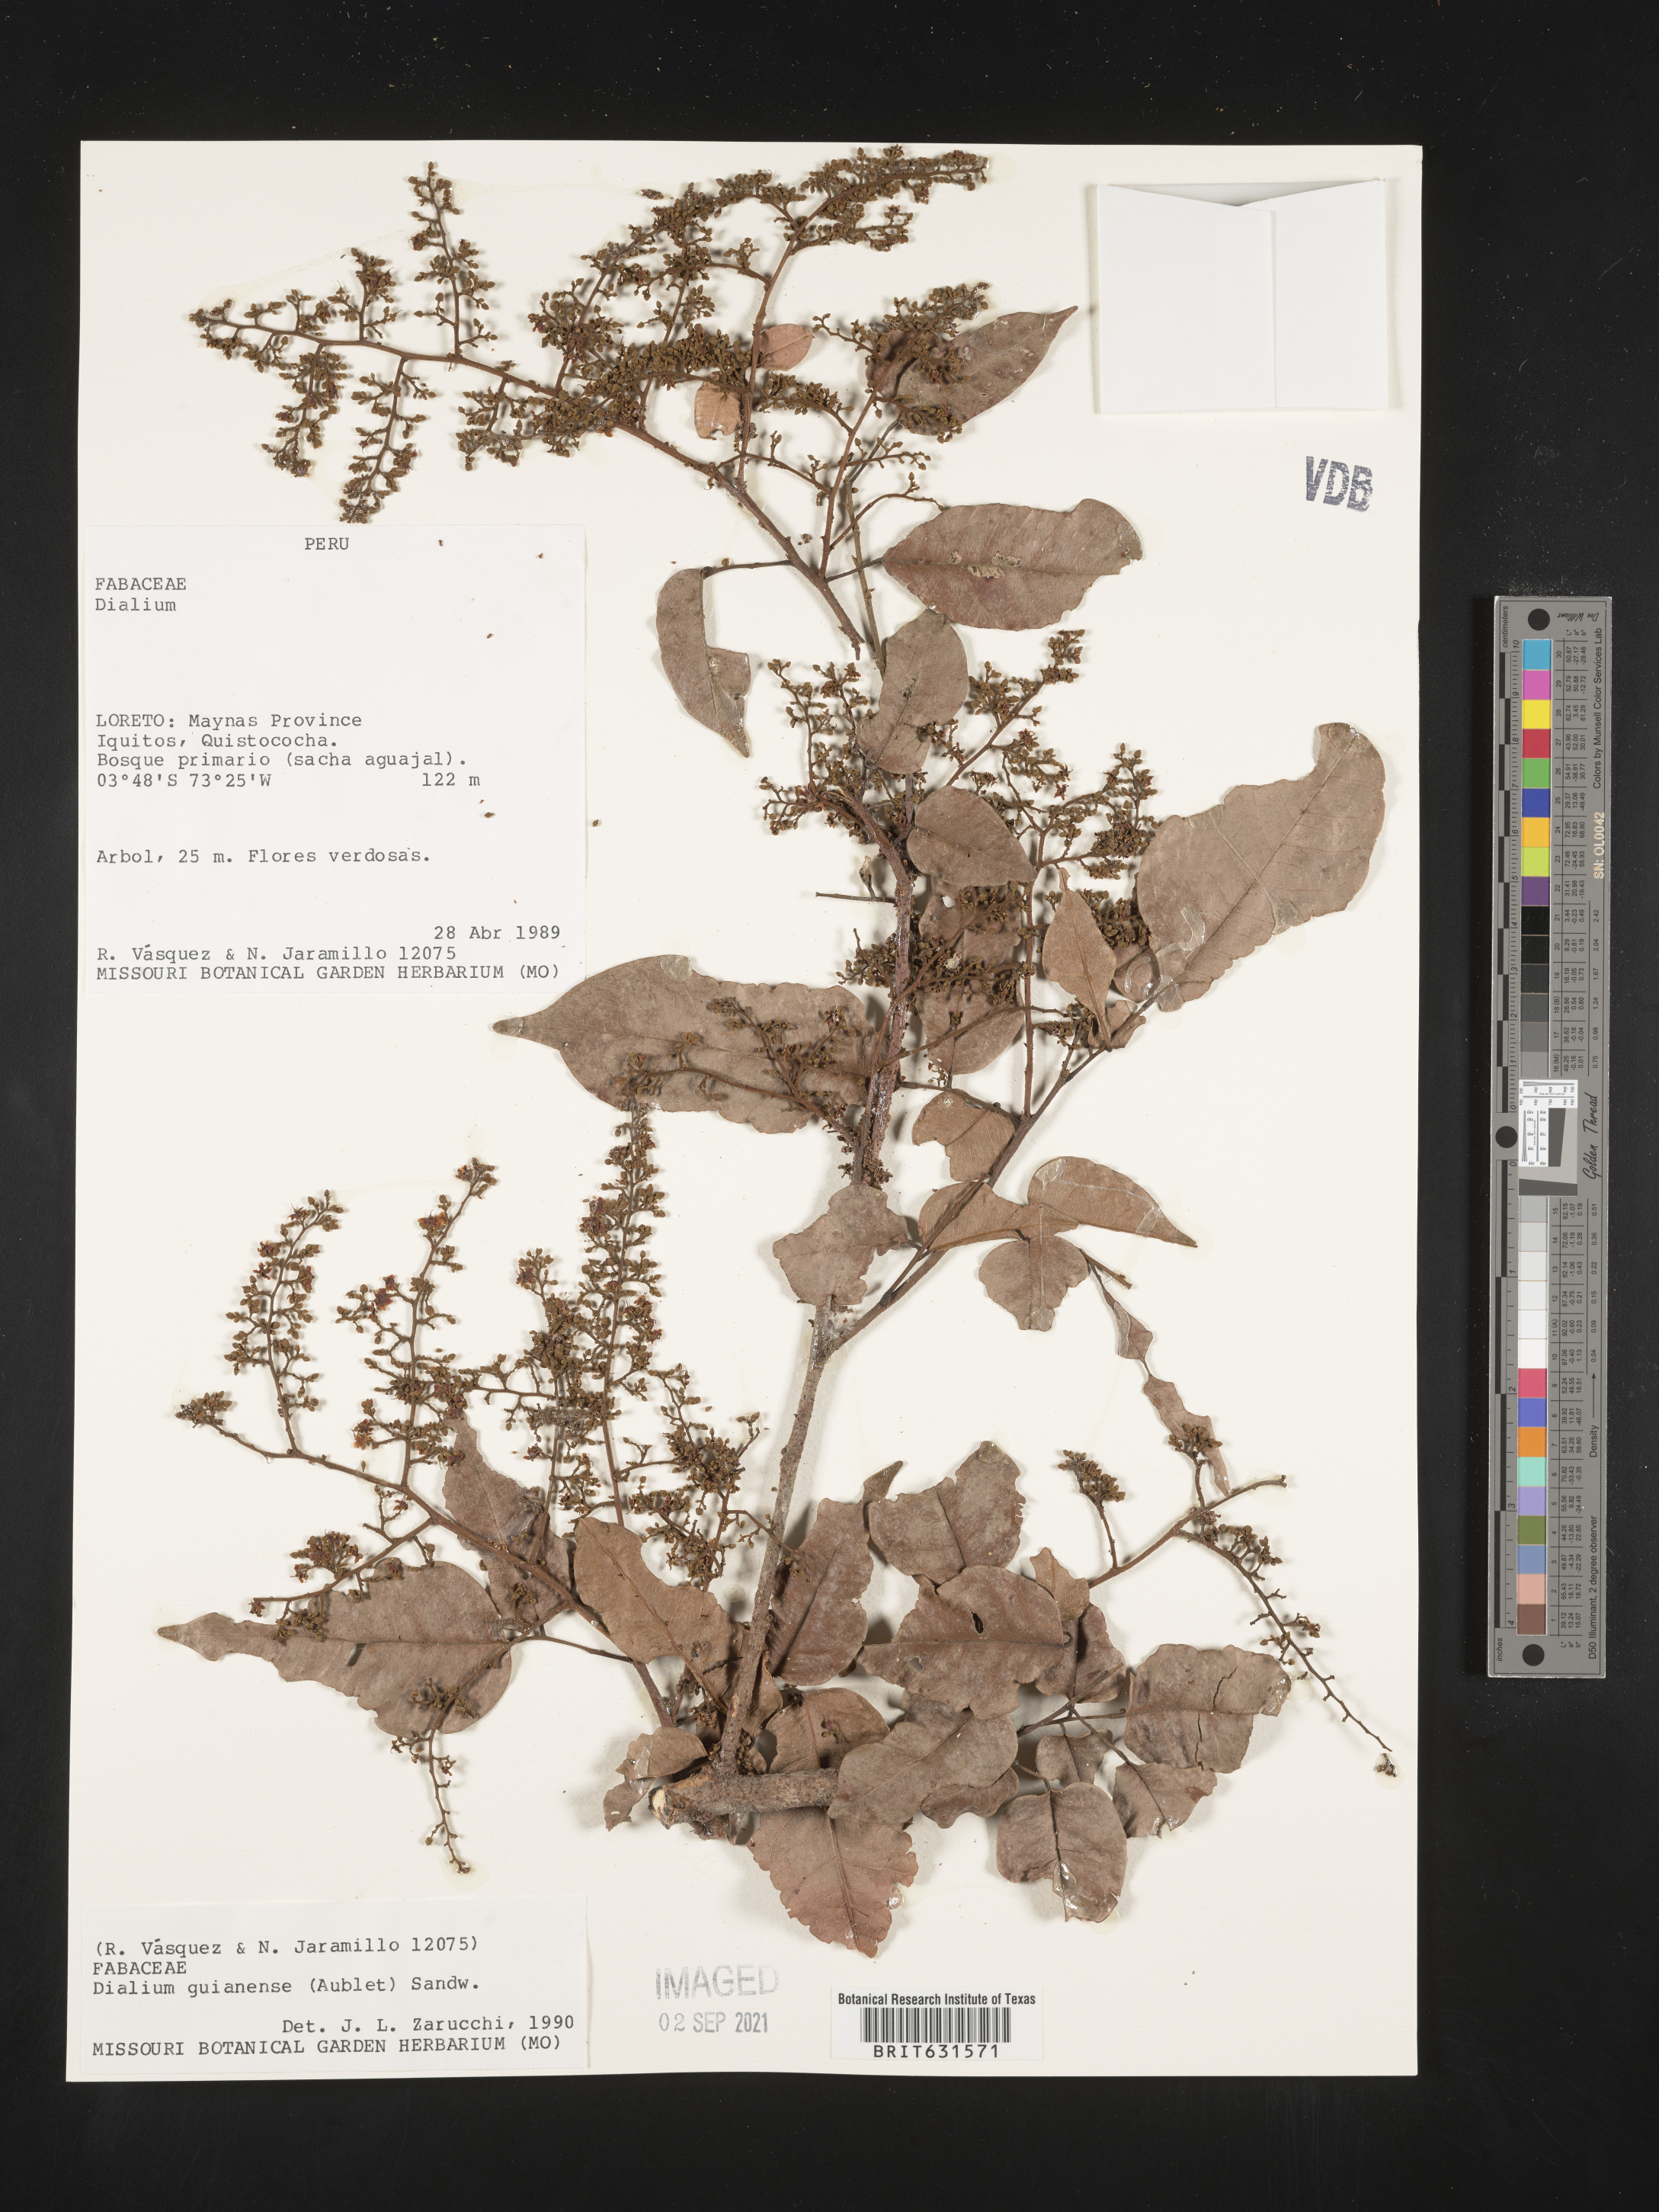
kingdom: Plantae
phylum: Tracheophyta
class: Magnoliopsida
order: Fabales
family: Fabaceae
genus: Dialium
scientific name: Dialium guianense
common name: Ironwood
